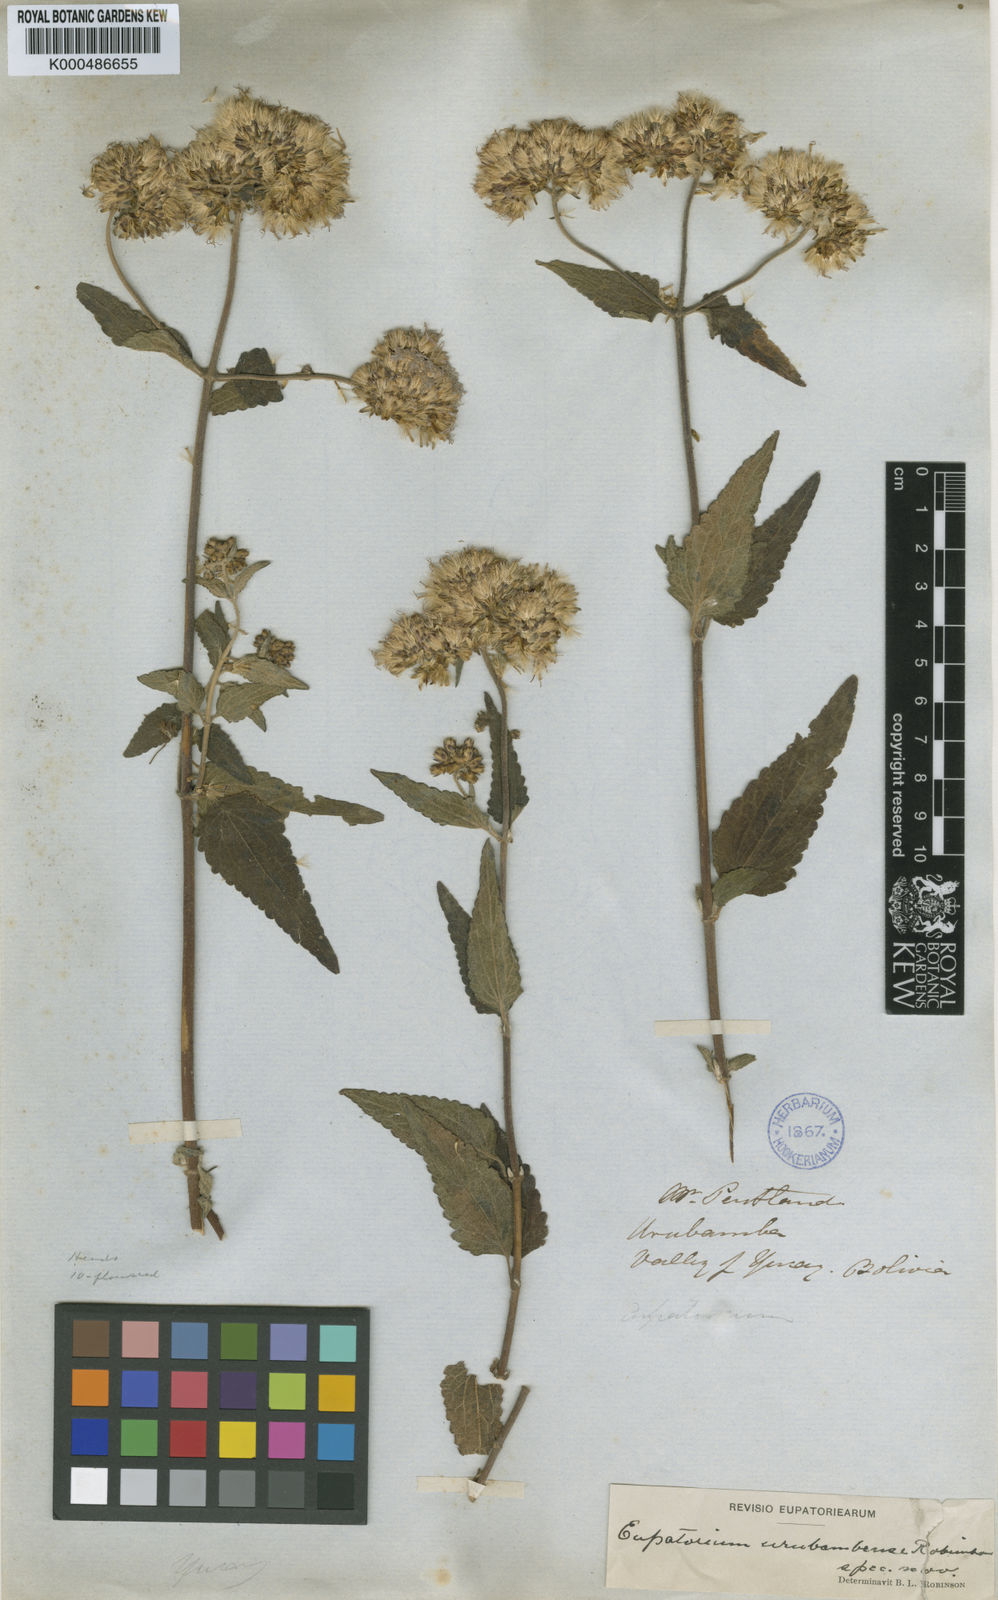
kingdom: Plantae
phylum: Tracheophyta
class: Magnoliopsida
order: Asterales
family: Asteraceae
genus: Cronquistianthus
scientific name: Cronquistianthus urubambensis
